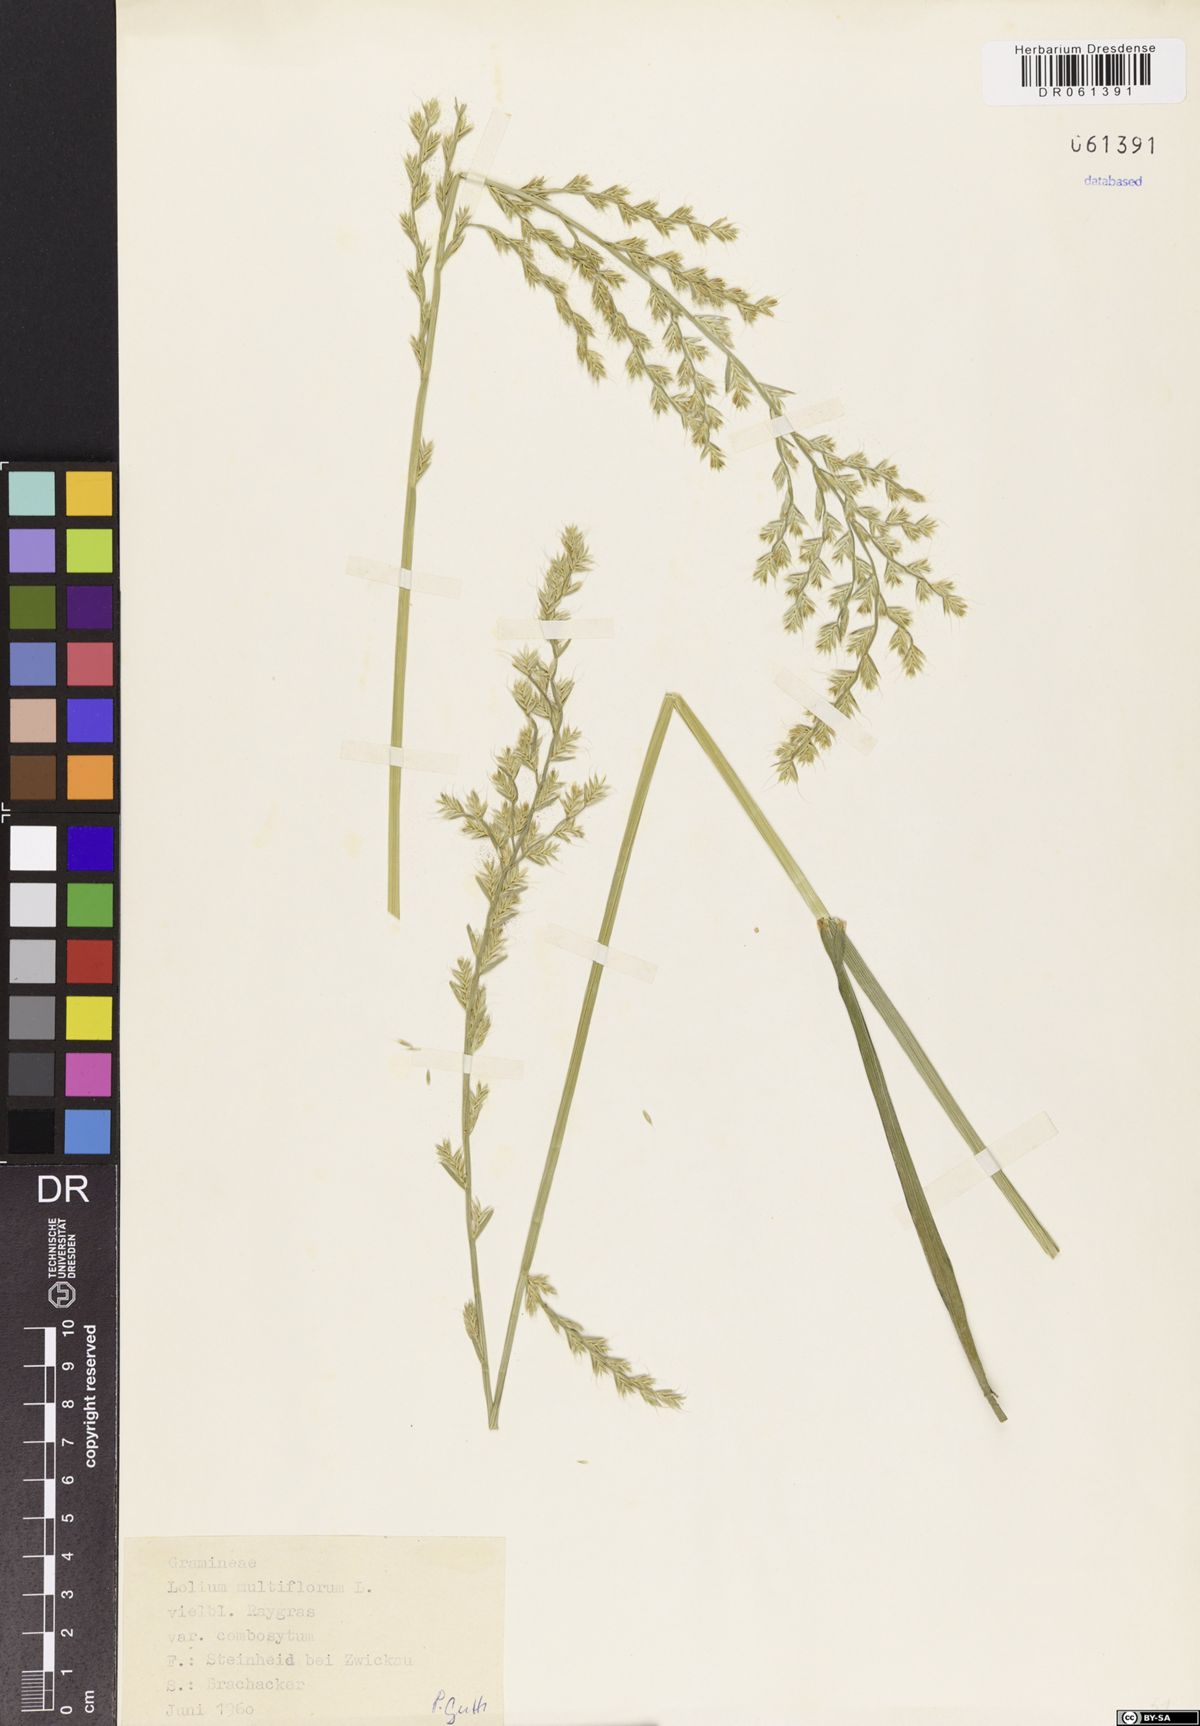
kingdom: Plantae
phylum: Tracheophyta
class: Liliopsida
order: Poales
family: Poaceae
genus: Lolium
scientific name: Lolium multiflorum
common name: Annual ryegrass
